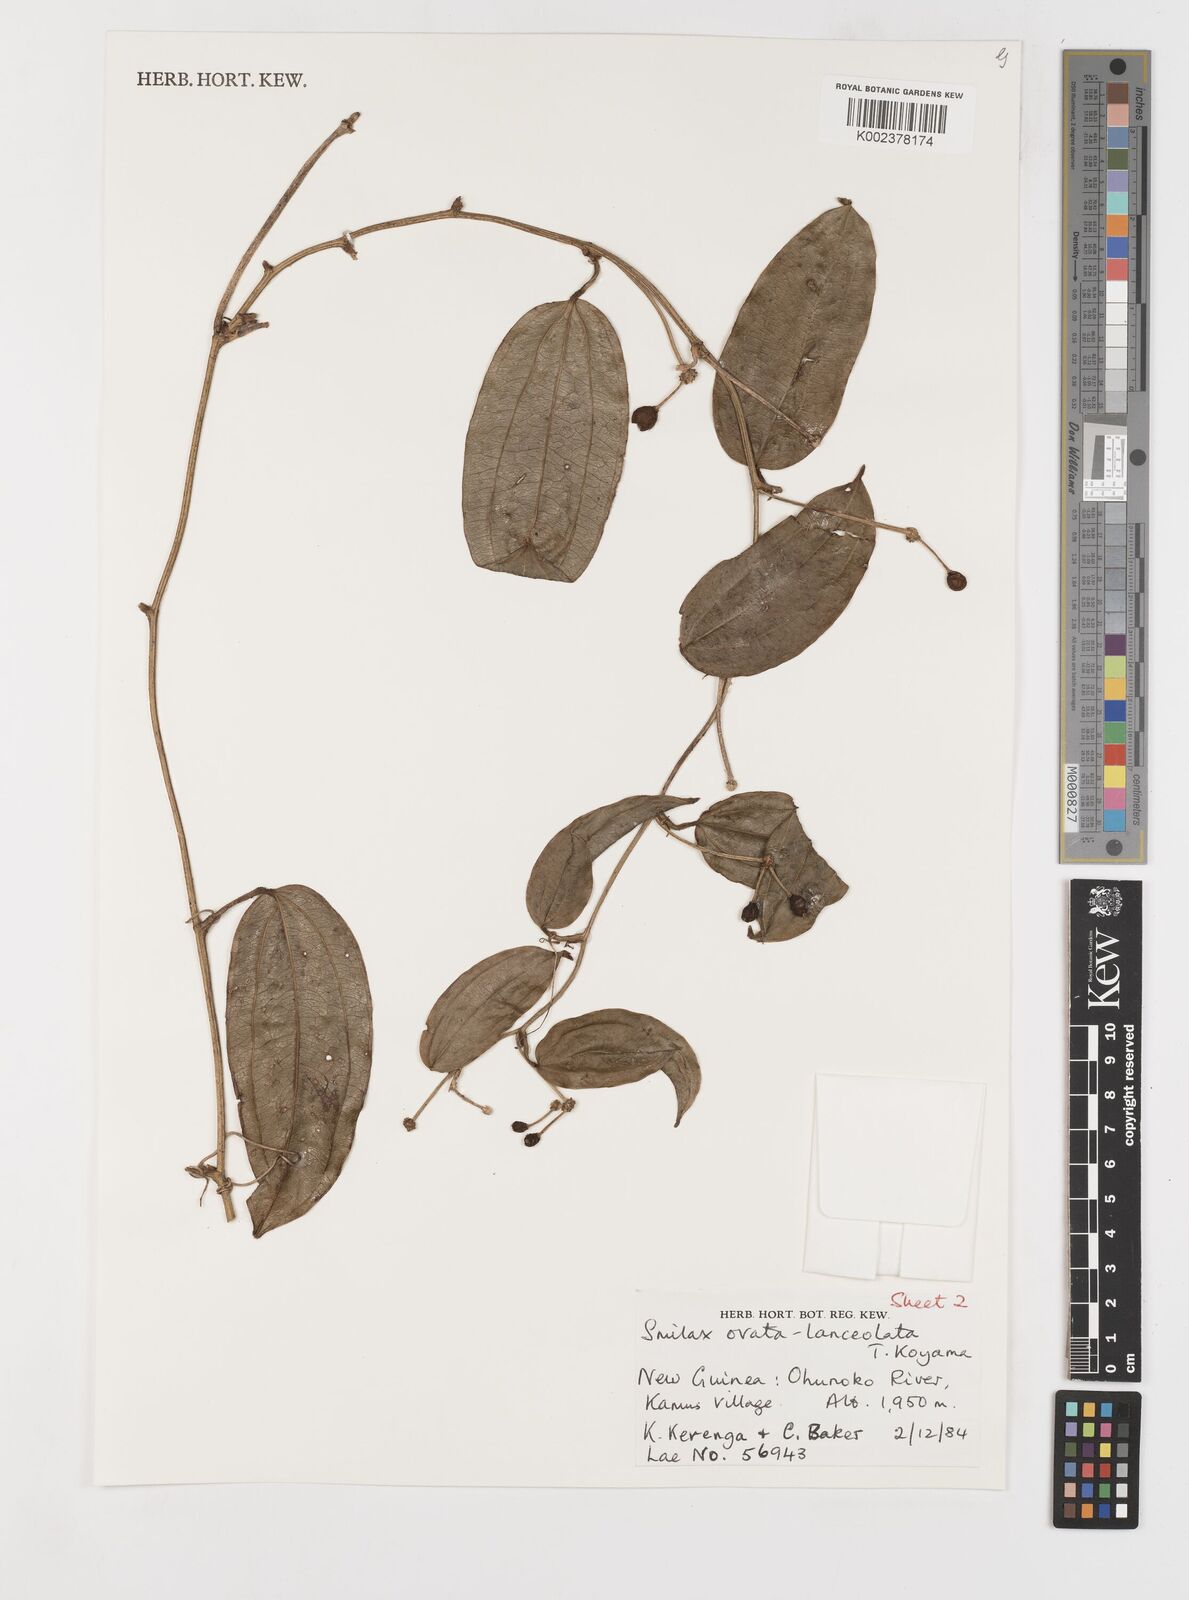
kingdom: Plantae
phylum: Tracheophyta
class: Liliopsida
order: Liliales
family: Smilacaceae
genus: Smilax
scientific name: Smilax ovatolanceolata
